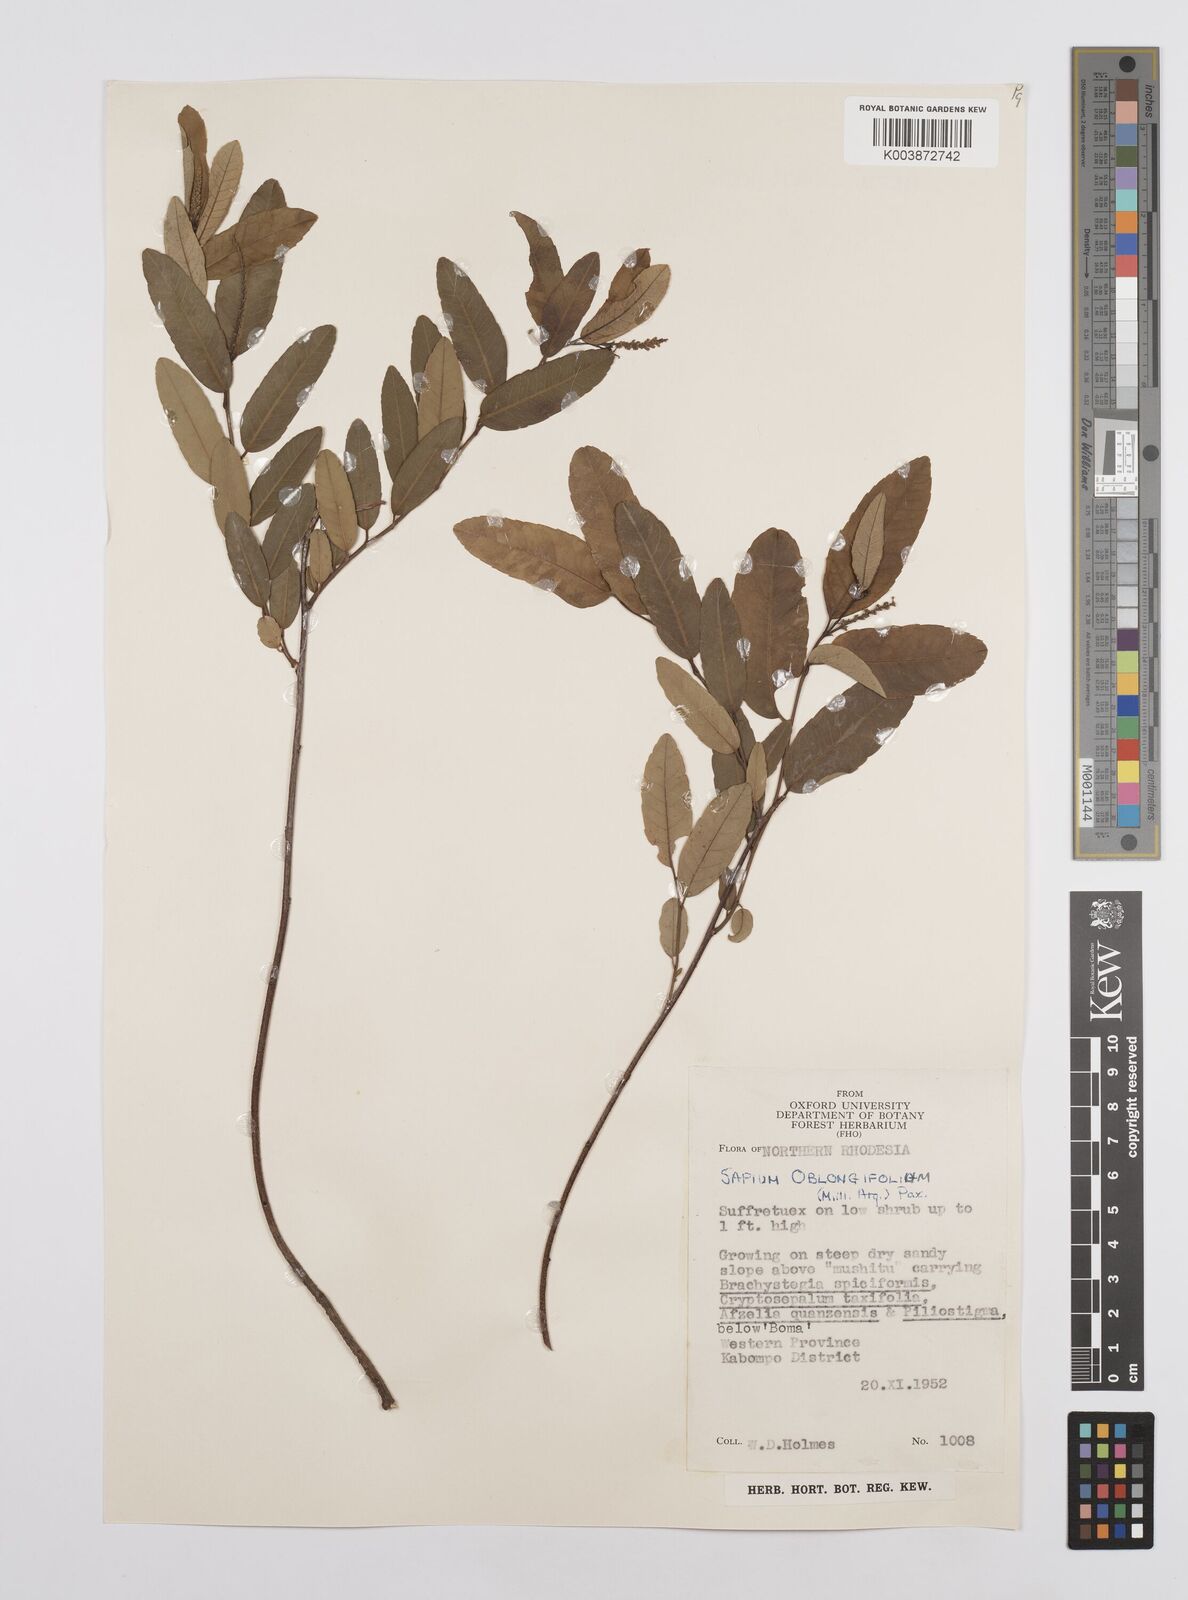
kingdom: Plantae
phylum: Tracheophyta
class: Magnoliopsida
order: Malpighiales
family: Euphorbiaceae
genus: Sclerocroton
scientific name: Sclerocroton oblongifolius
